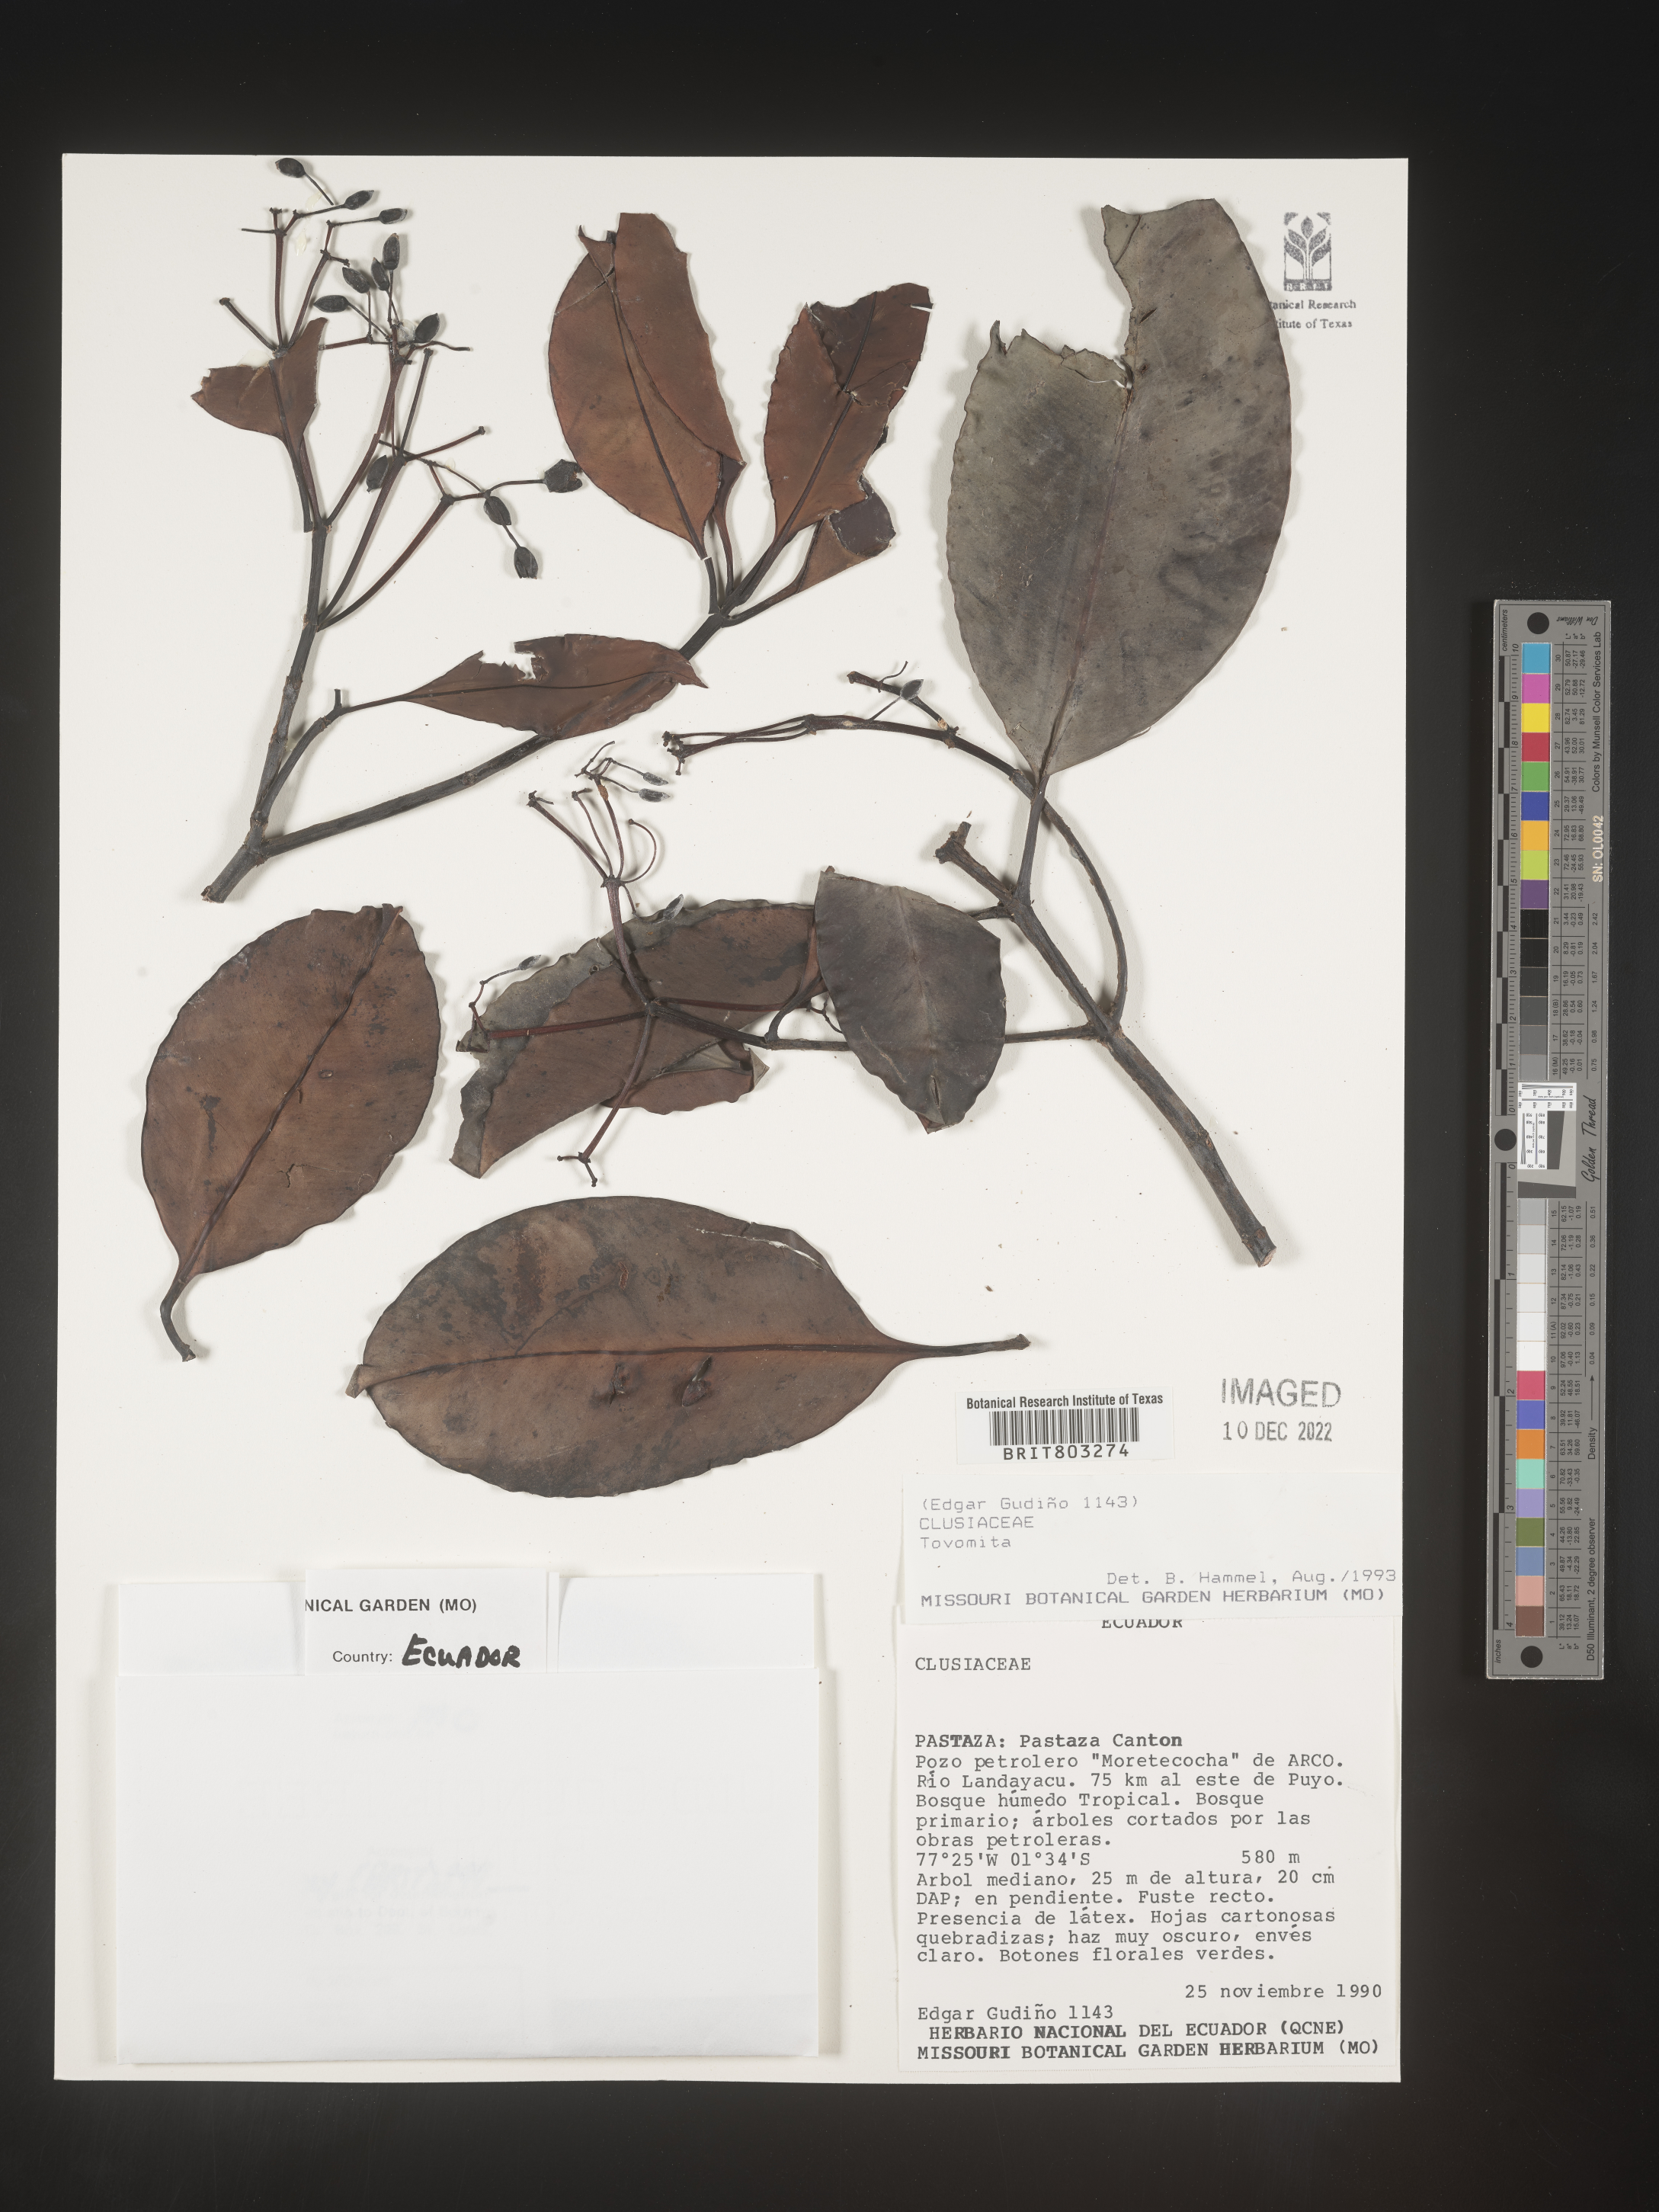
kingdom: Plantae
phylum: Tracheophyta
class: Magnoliopsida
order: Malpighiales
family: Clusiaceae
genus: Tovomita
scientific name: Tovomita
